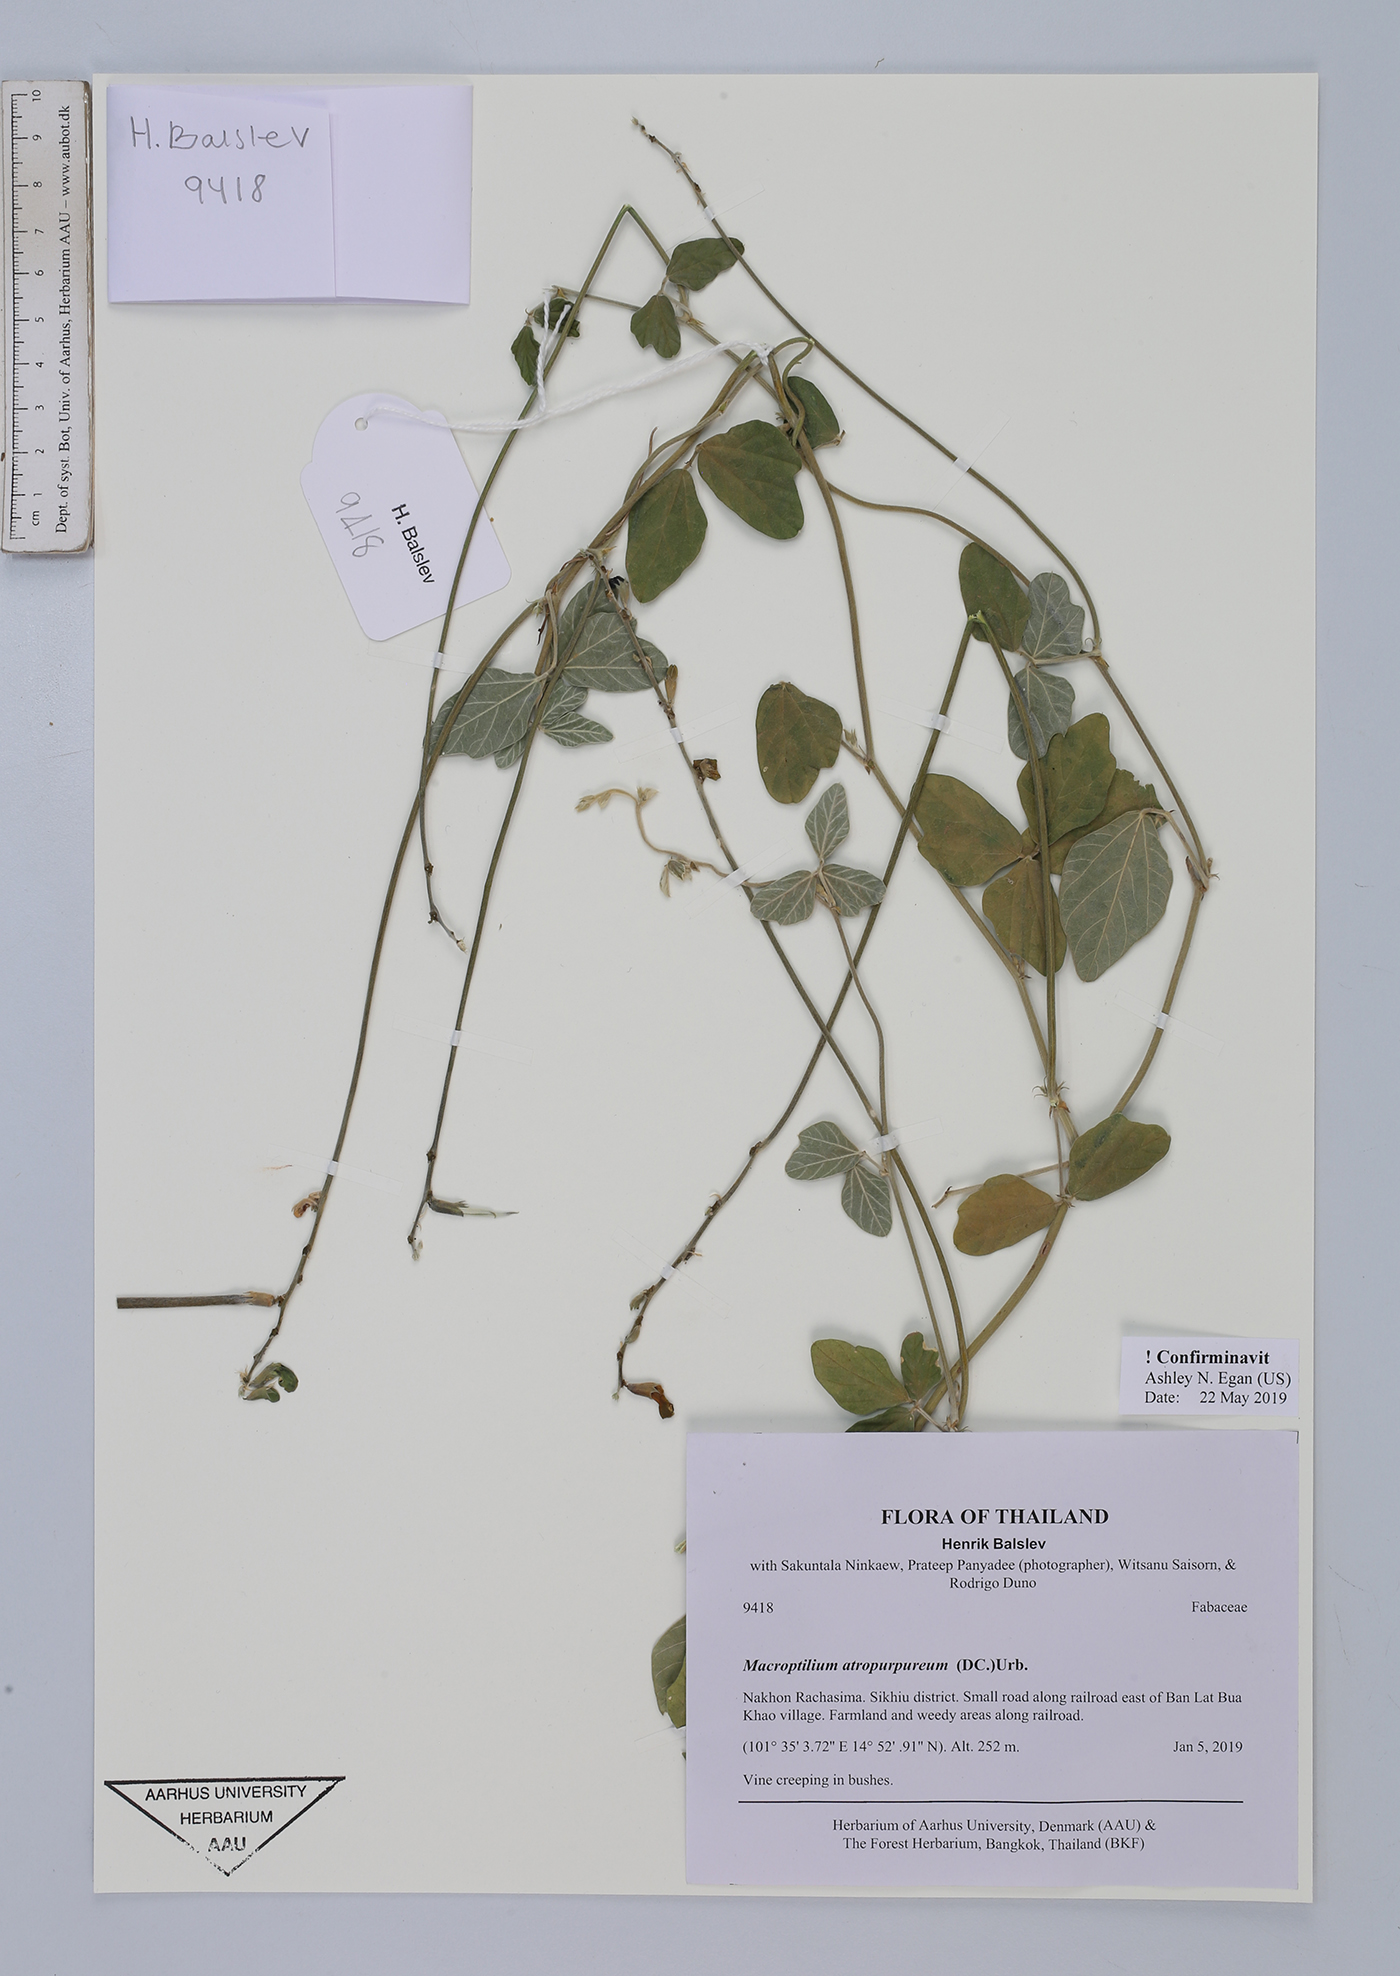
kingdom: Plantae
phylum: Tracheophyta
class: Magnoliopsida
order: Fabales
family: Fabaceae
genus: Macroptilium
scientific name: Macroptilium atropurpureum
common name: Purple bushbean
